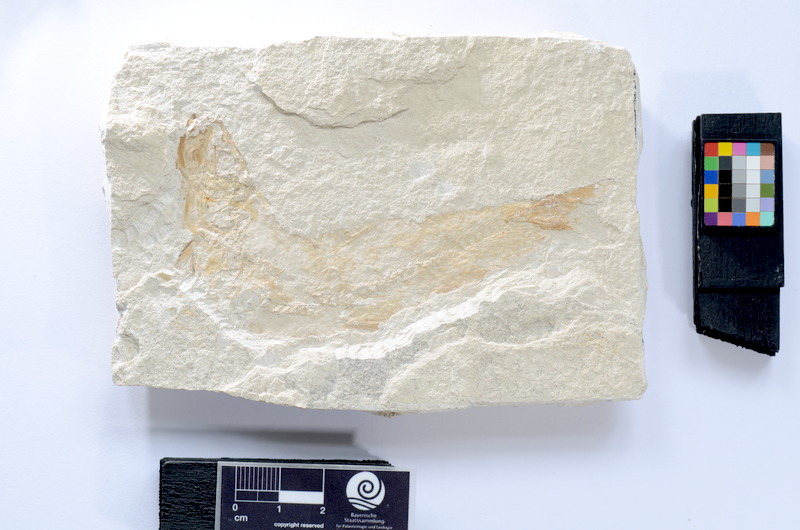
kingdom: Animalia
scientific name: Animalia
